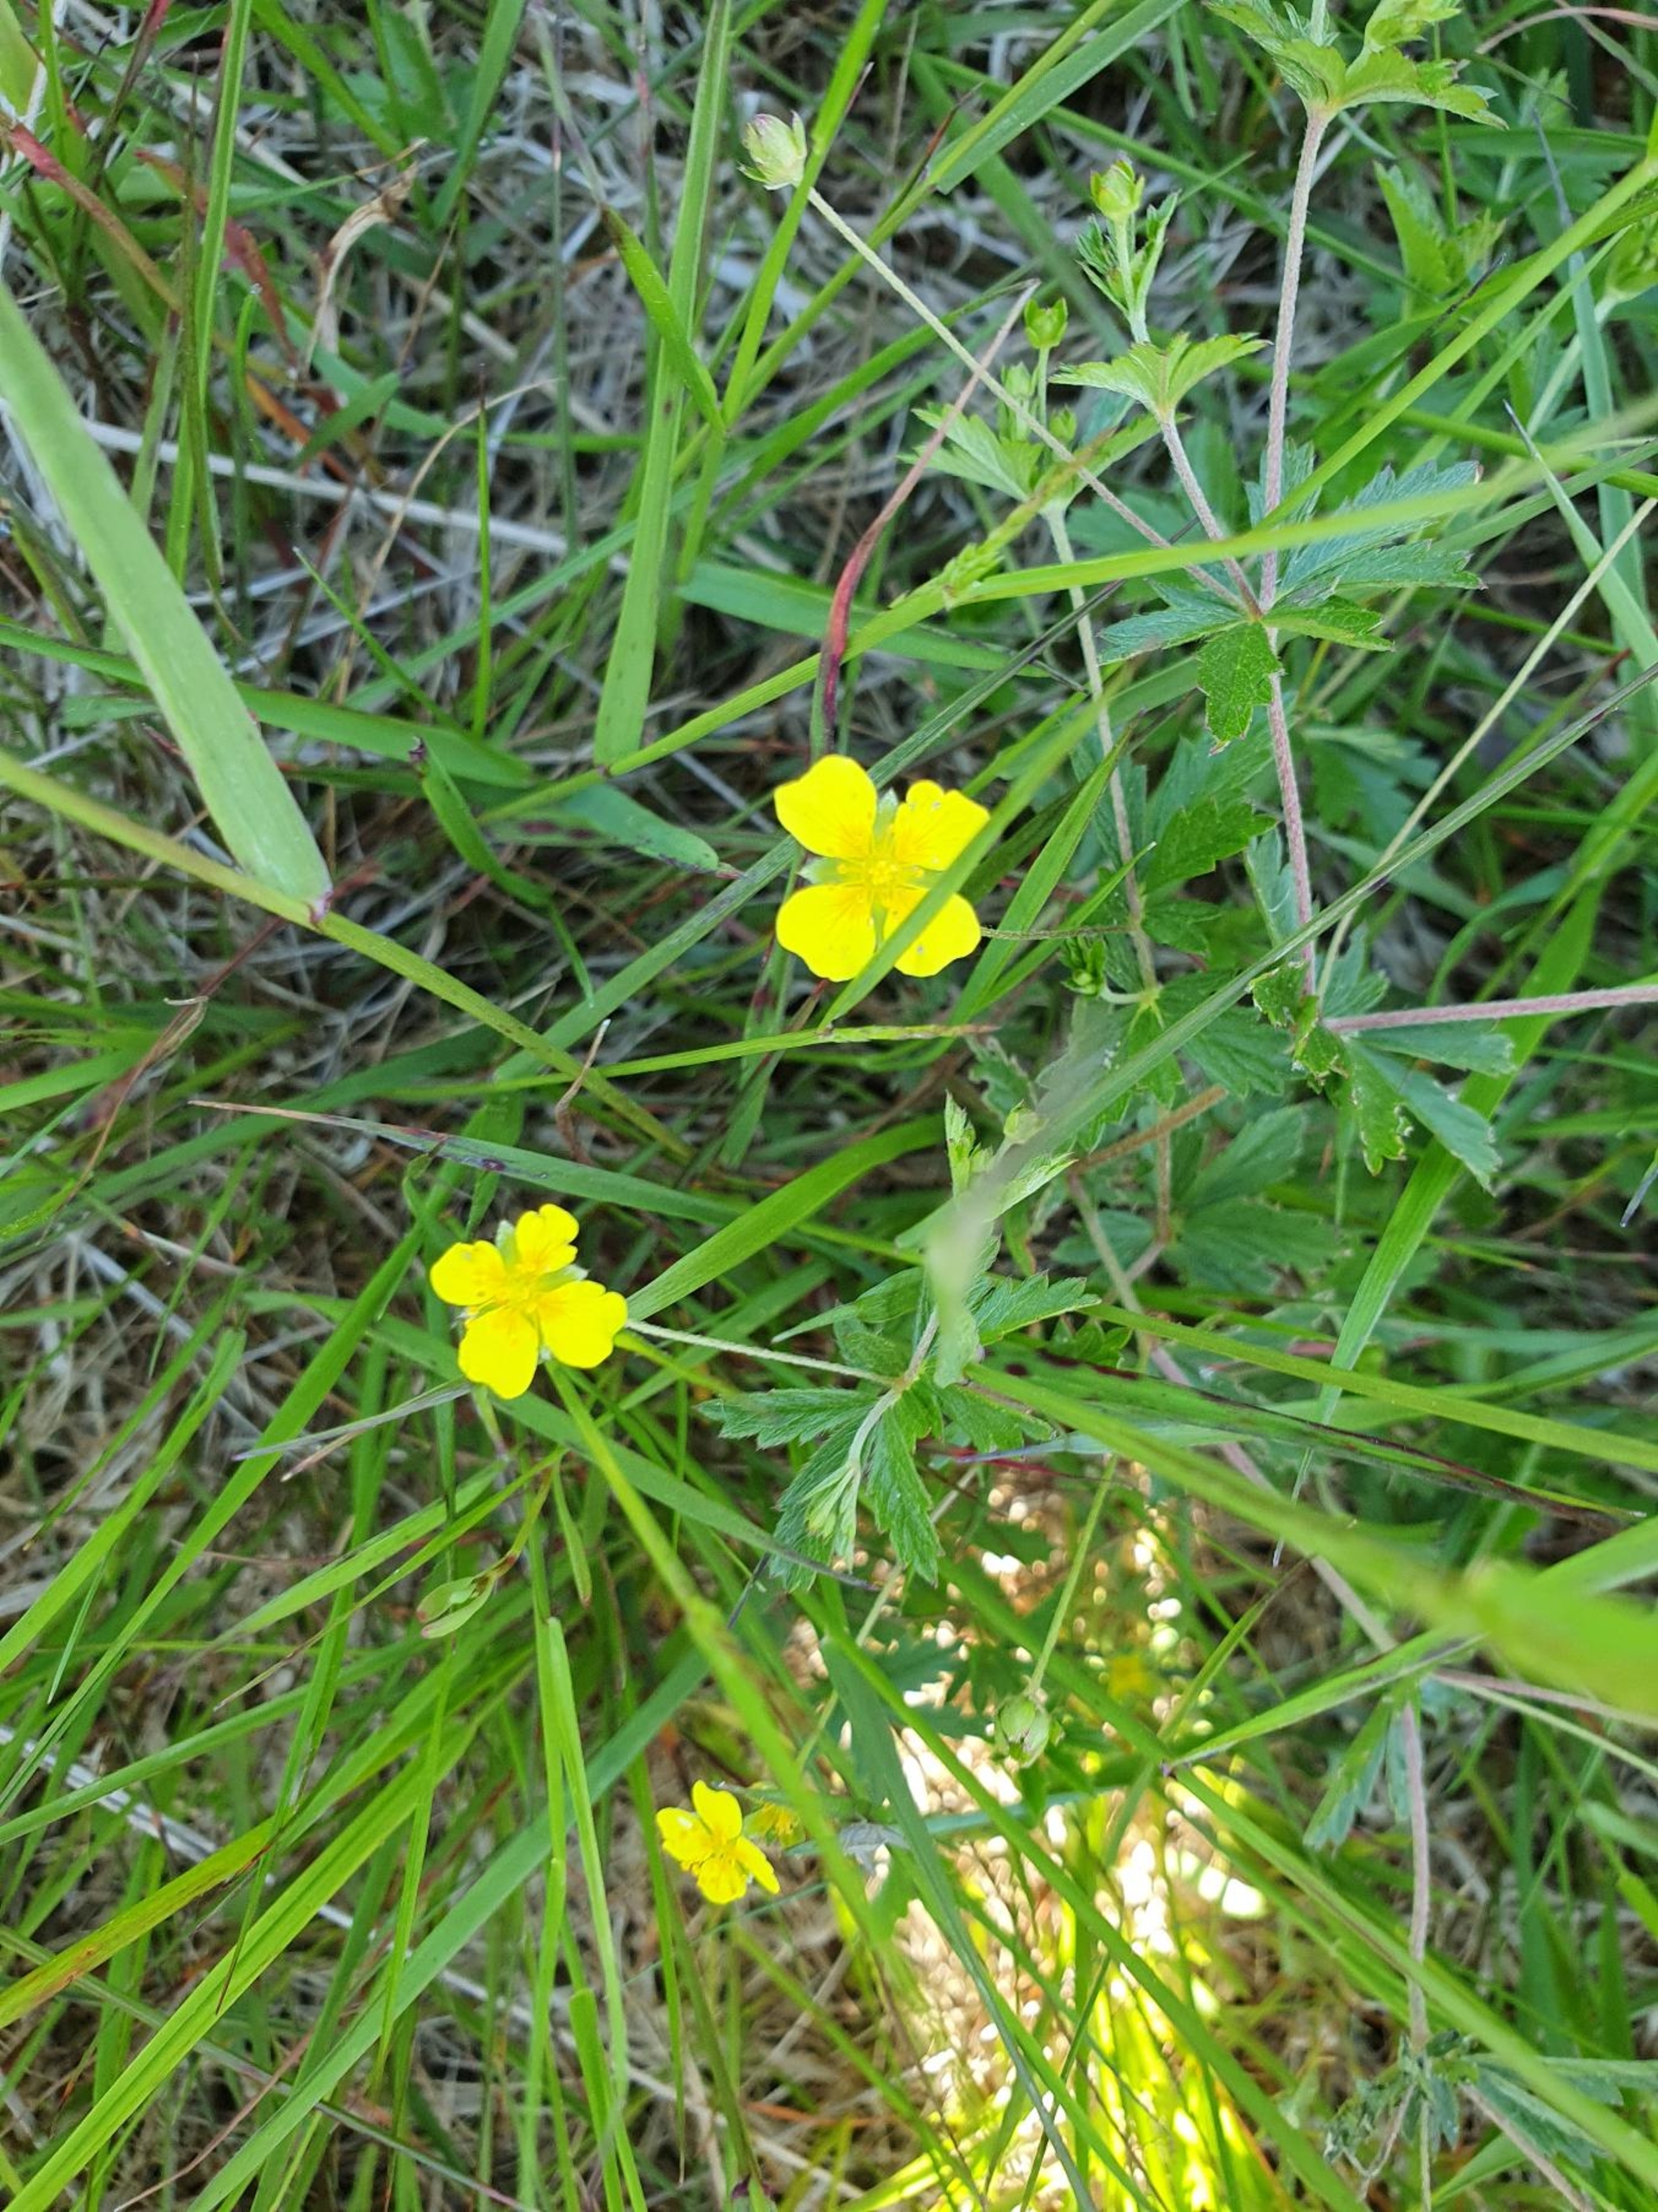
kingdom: Plantae
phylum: Tracheophyta
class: Magnoliopsida
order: Rosales
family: Rosaceae
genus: Potentilla
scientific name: Potentilla erecta
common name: Tormentil
